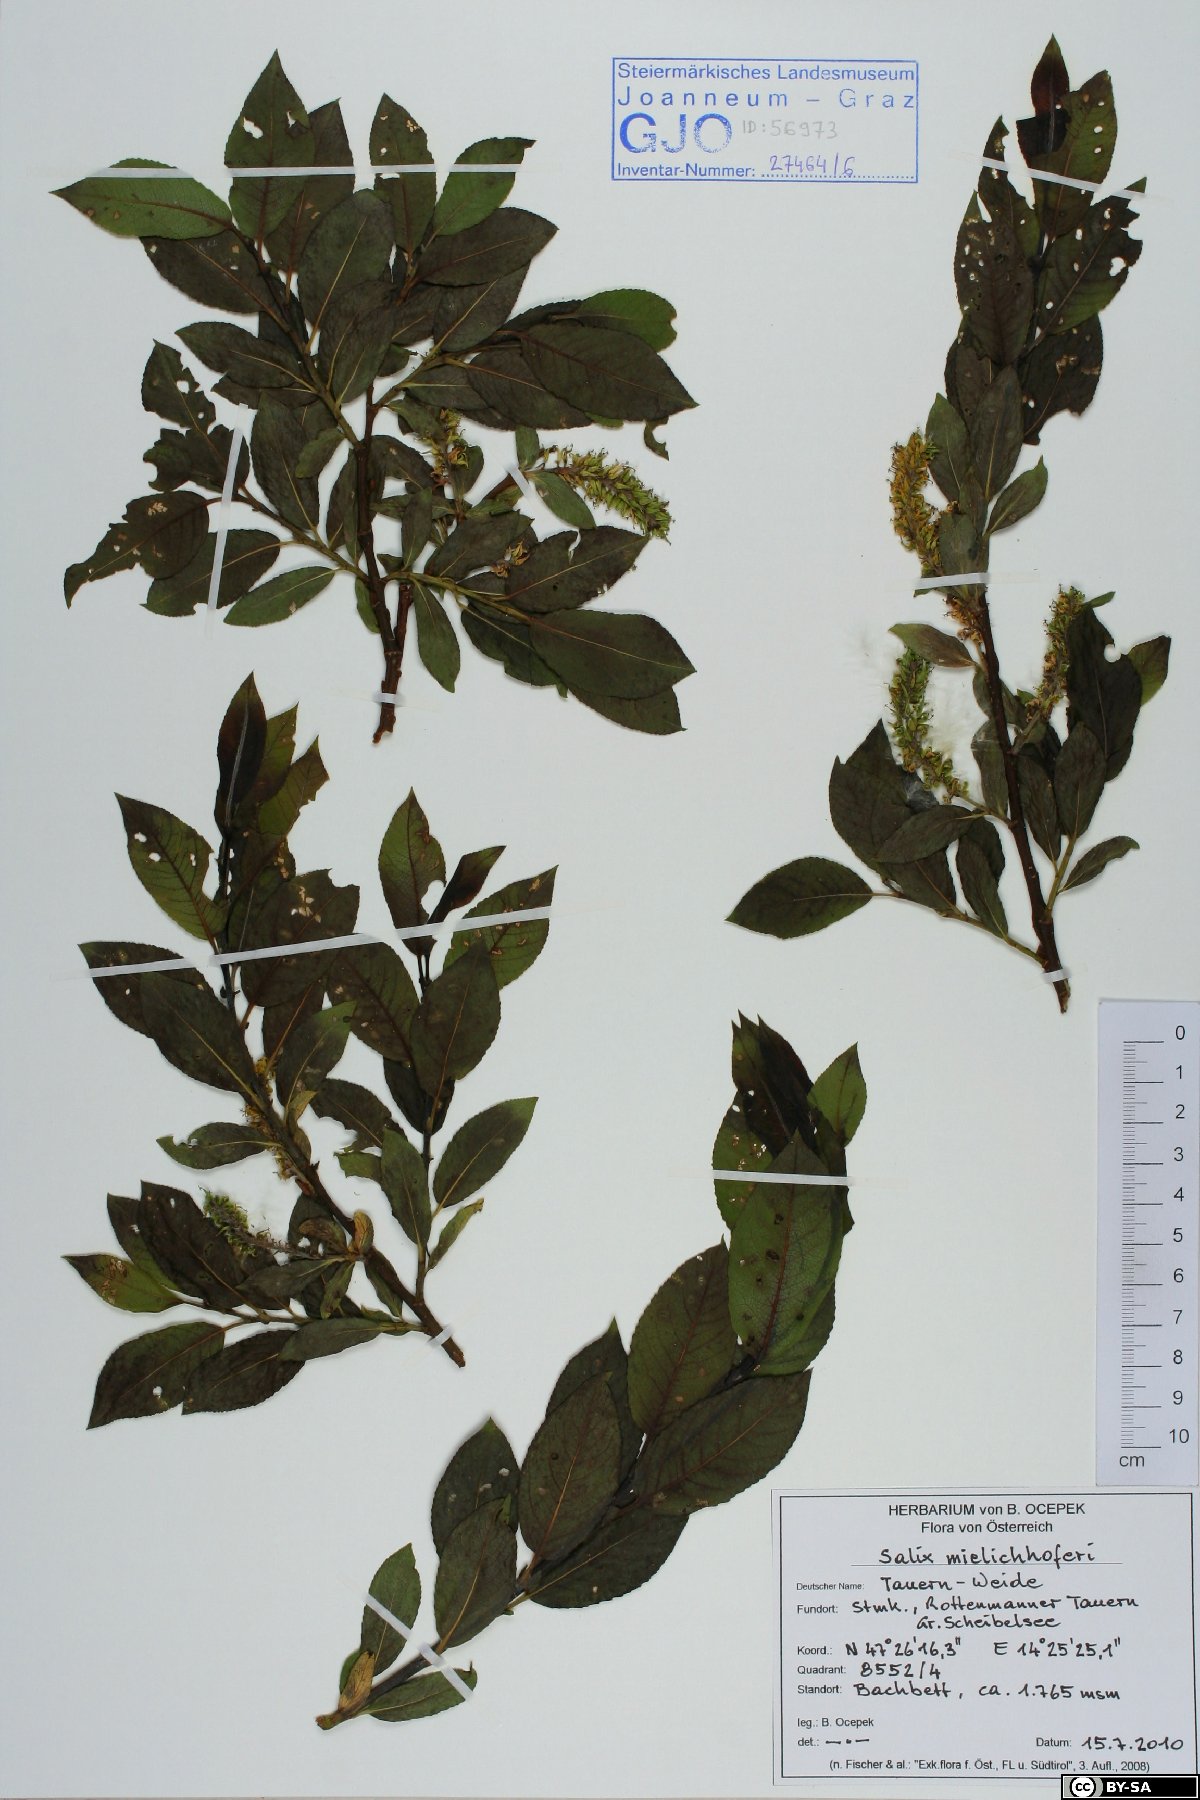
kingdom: Plantae
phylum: Tracheophyta
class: Magnoliopsida
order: Malpighiales
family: Salicaceae
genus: Salix
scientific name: Salix mielichhoferi
